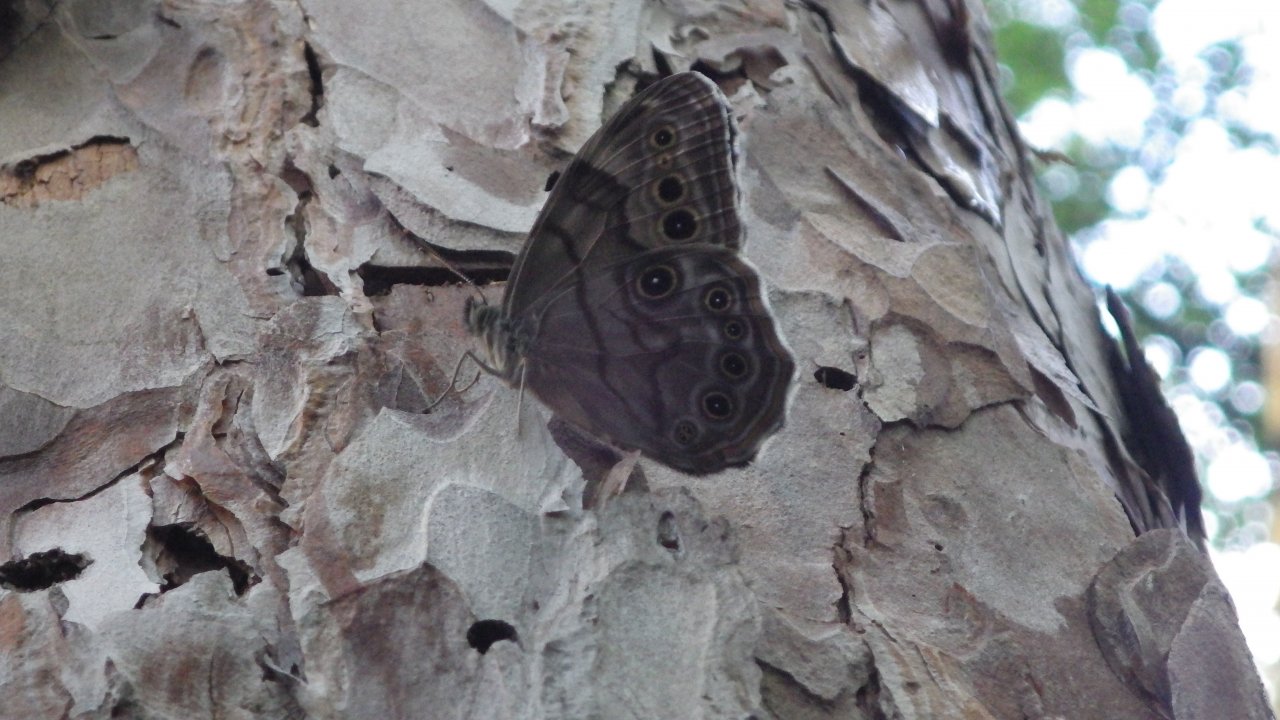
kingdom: Animalia
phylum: Arthropoda
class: Insecta
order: Lepidoptera
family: Nymphalidae
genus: Lethe
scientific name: Lethe anthedon
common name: Northern Pearly-Eye
